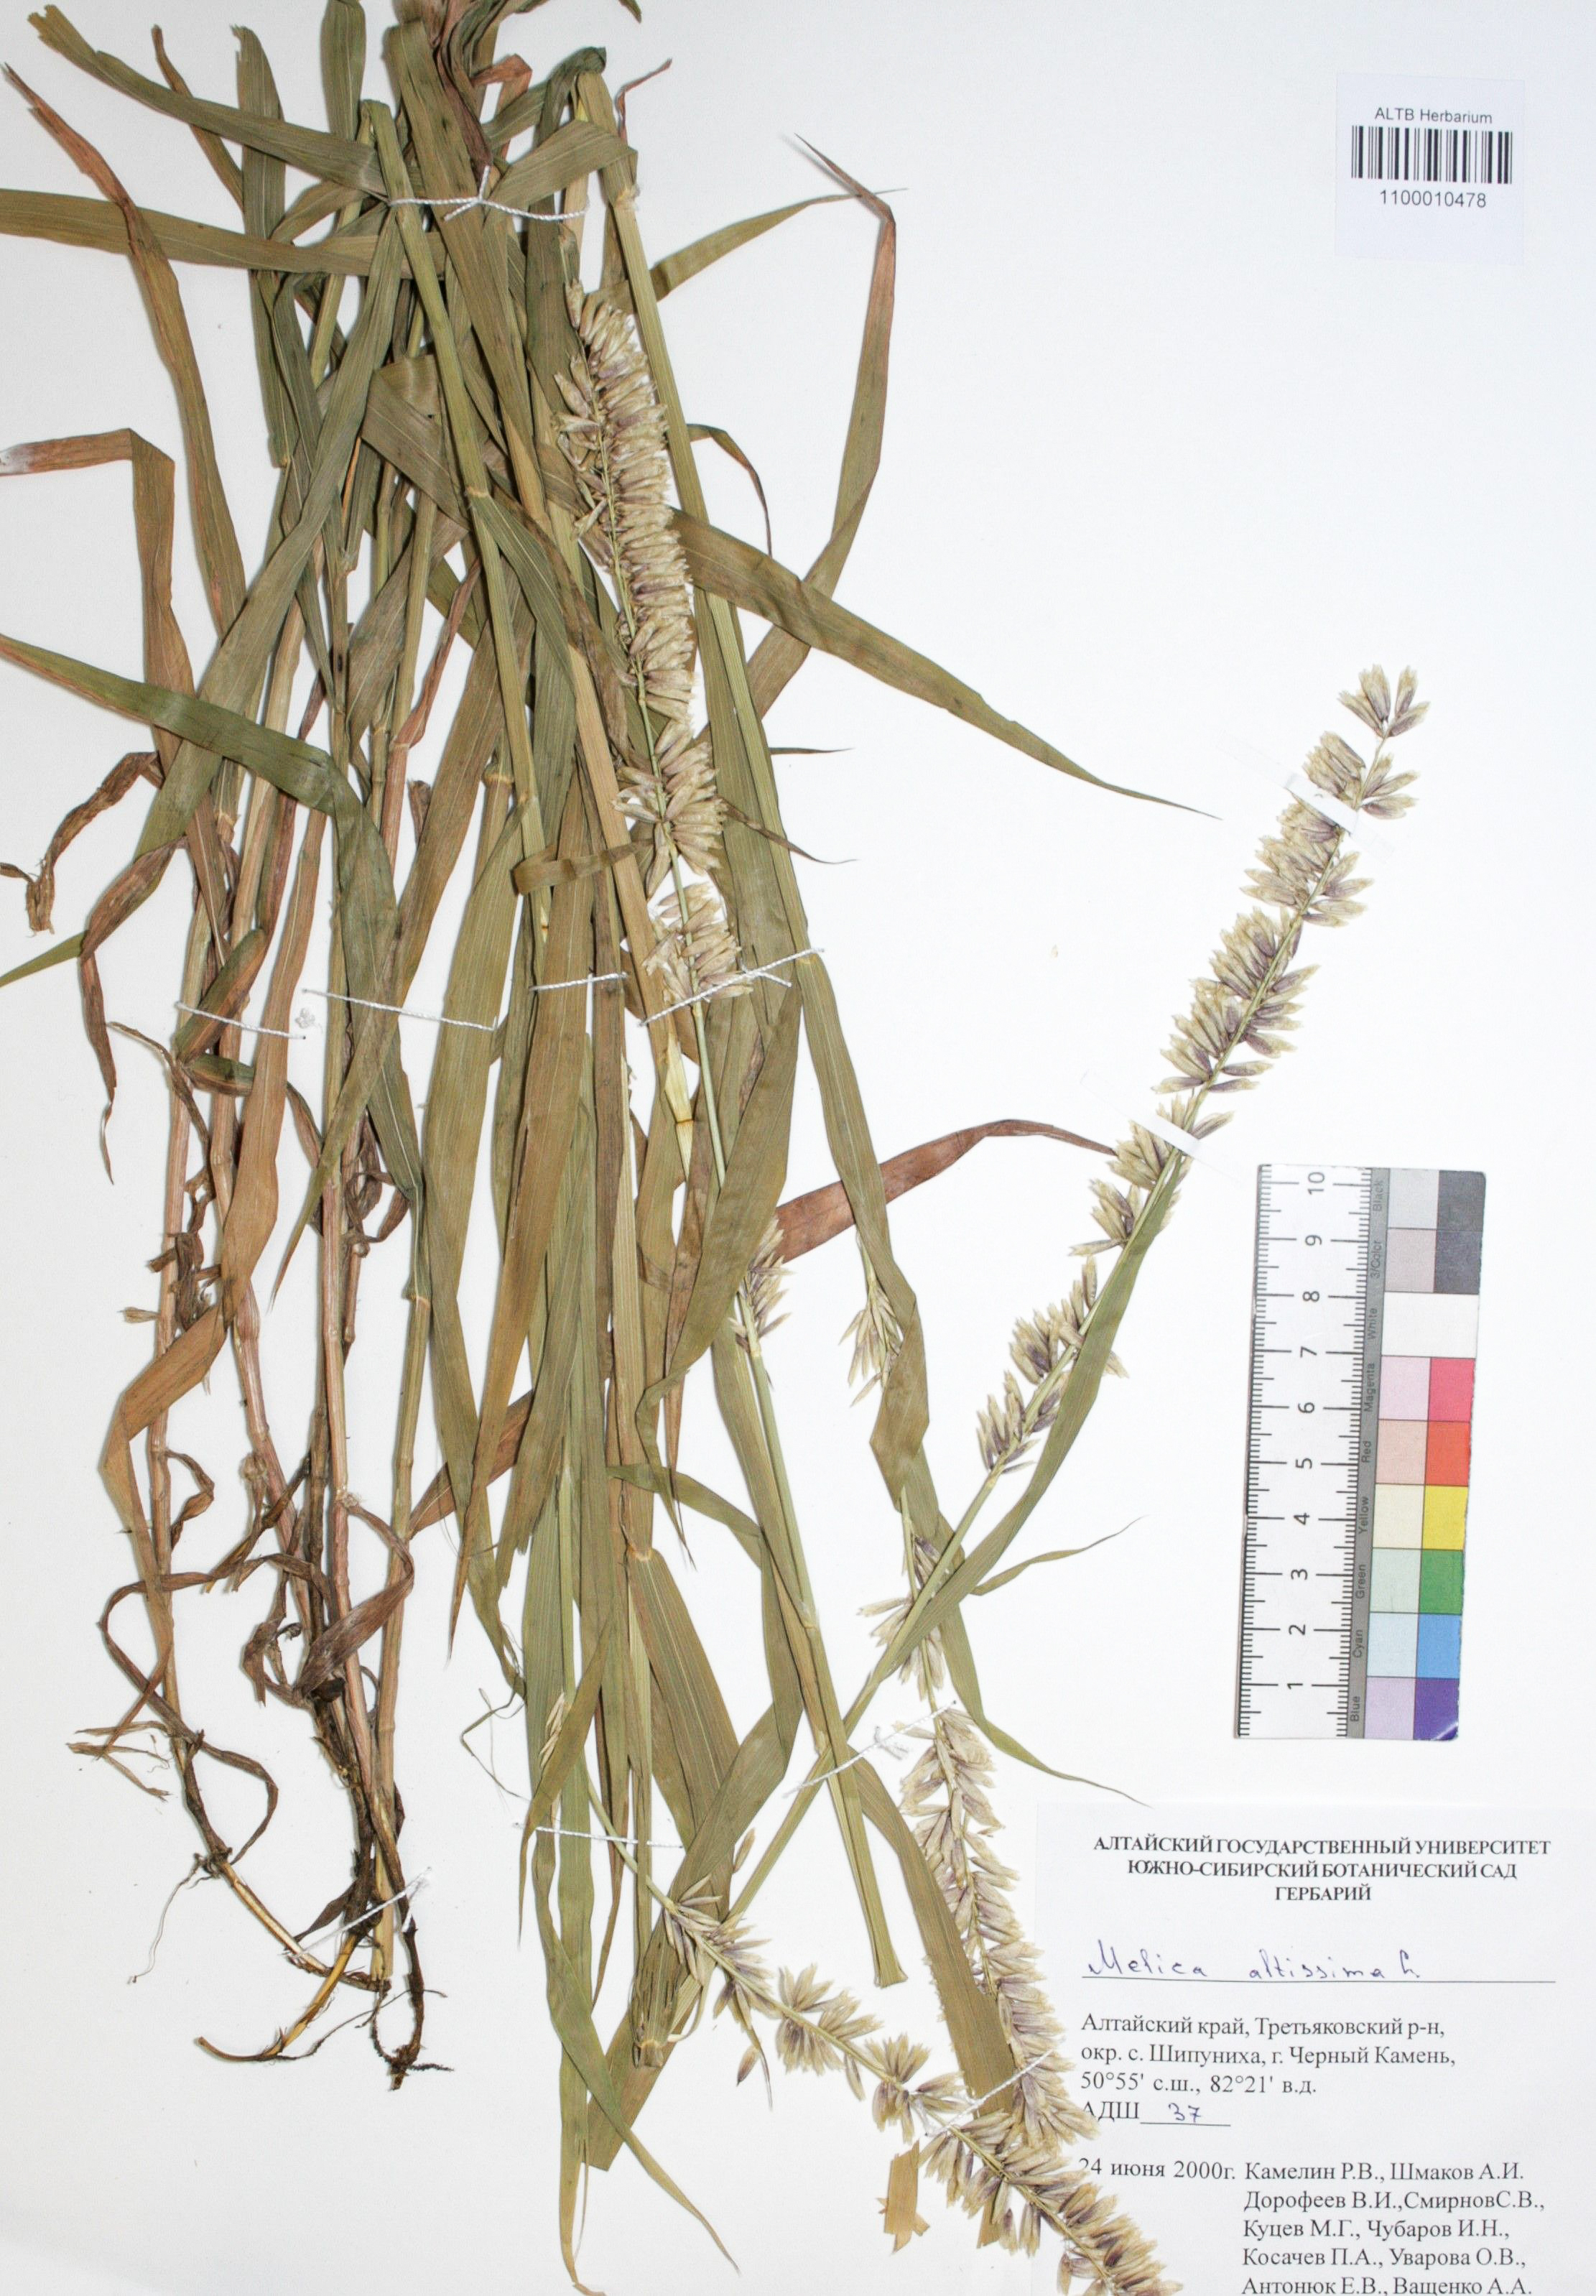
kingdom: Plantae
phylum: Tracheophyta
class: Liliopsida
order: Poales
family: Poaceae
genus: Melica
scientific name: Melica altissima
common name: Siberian melicgrass
